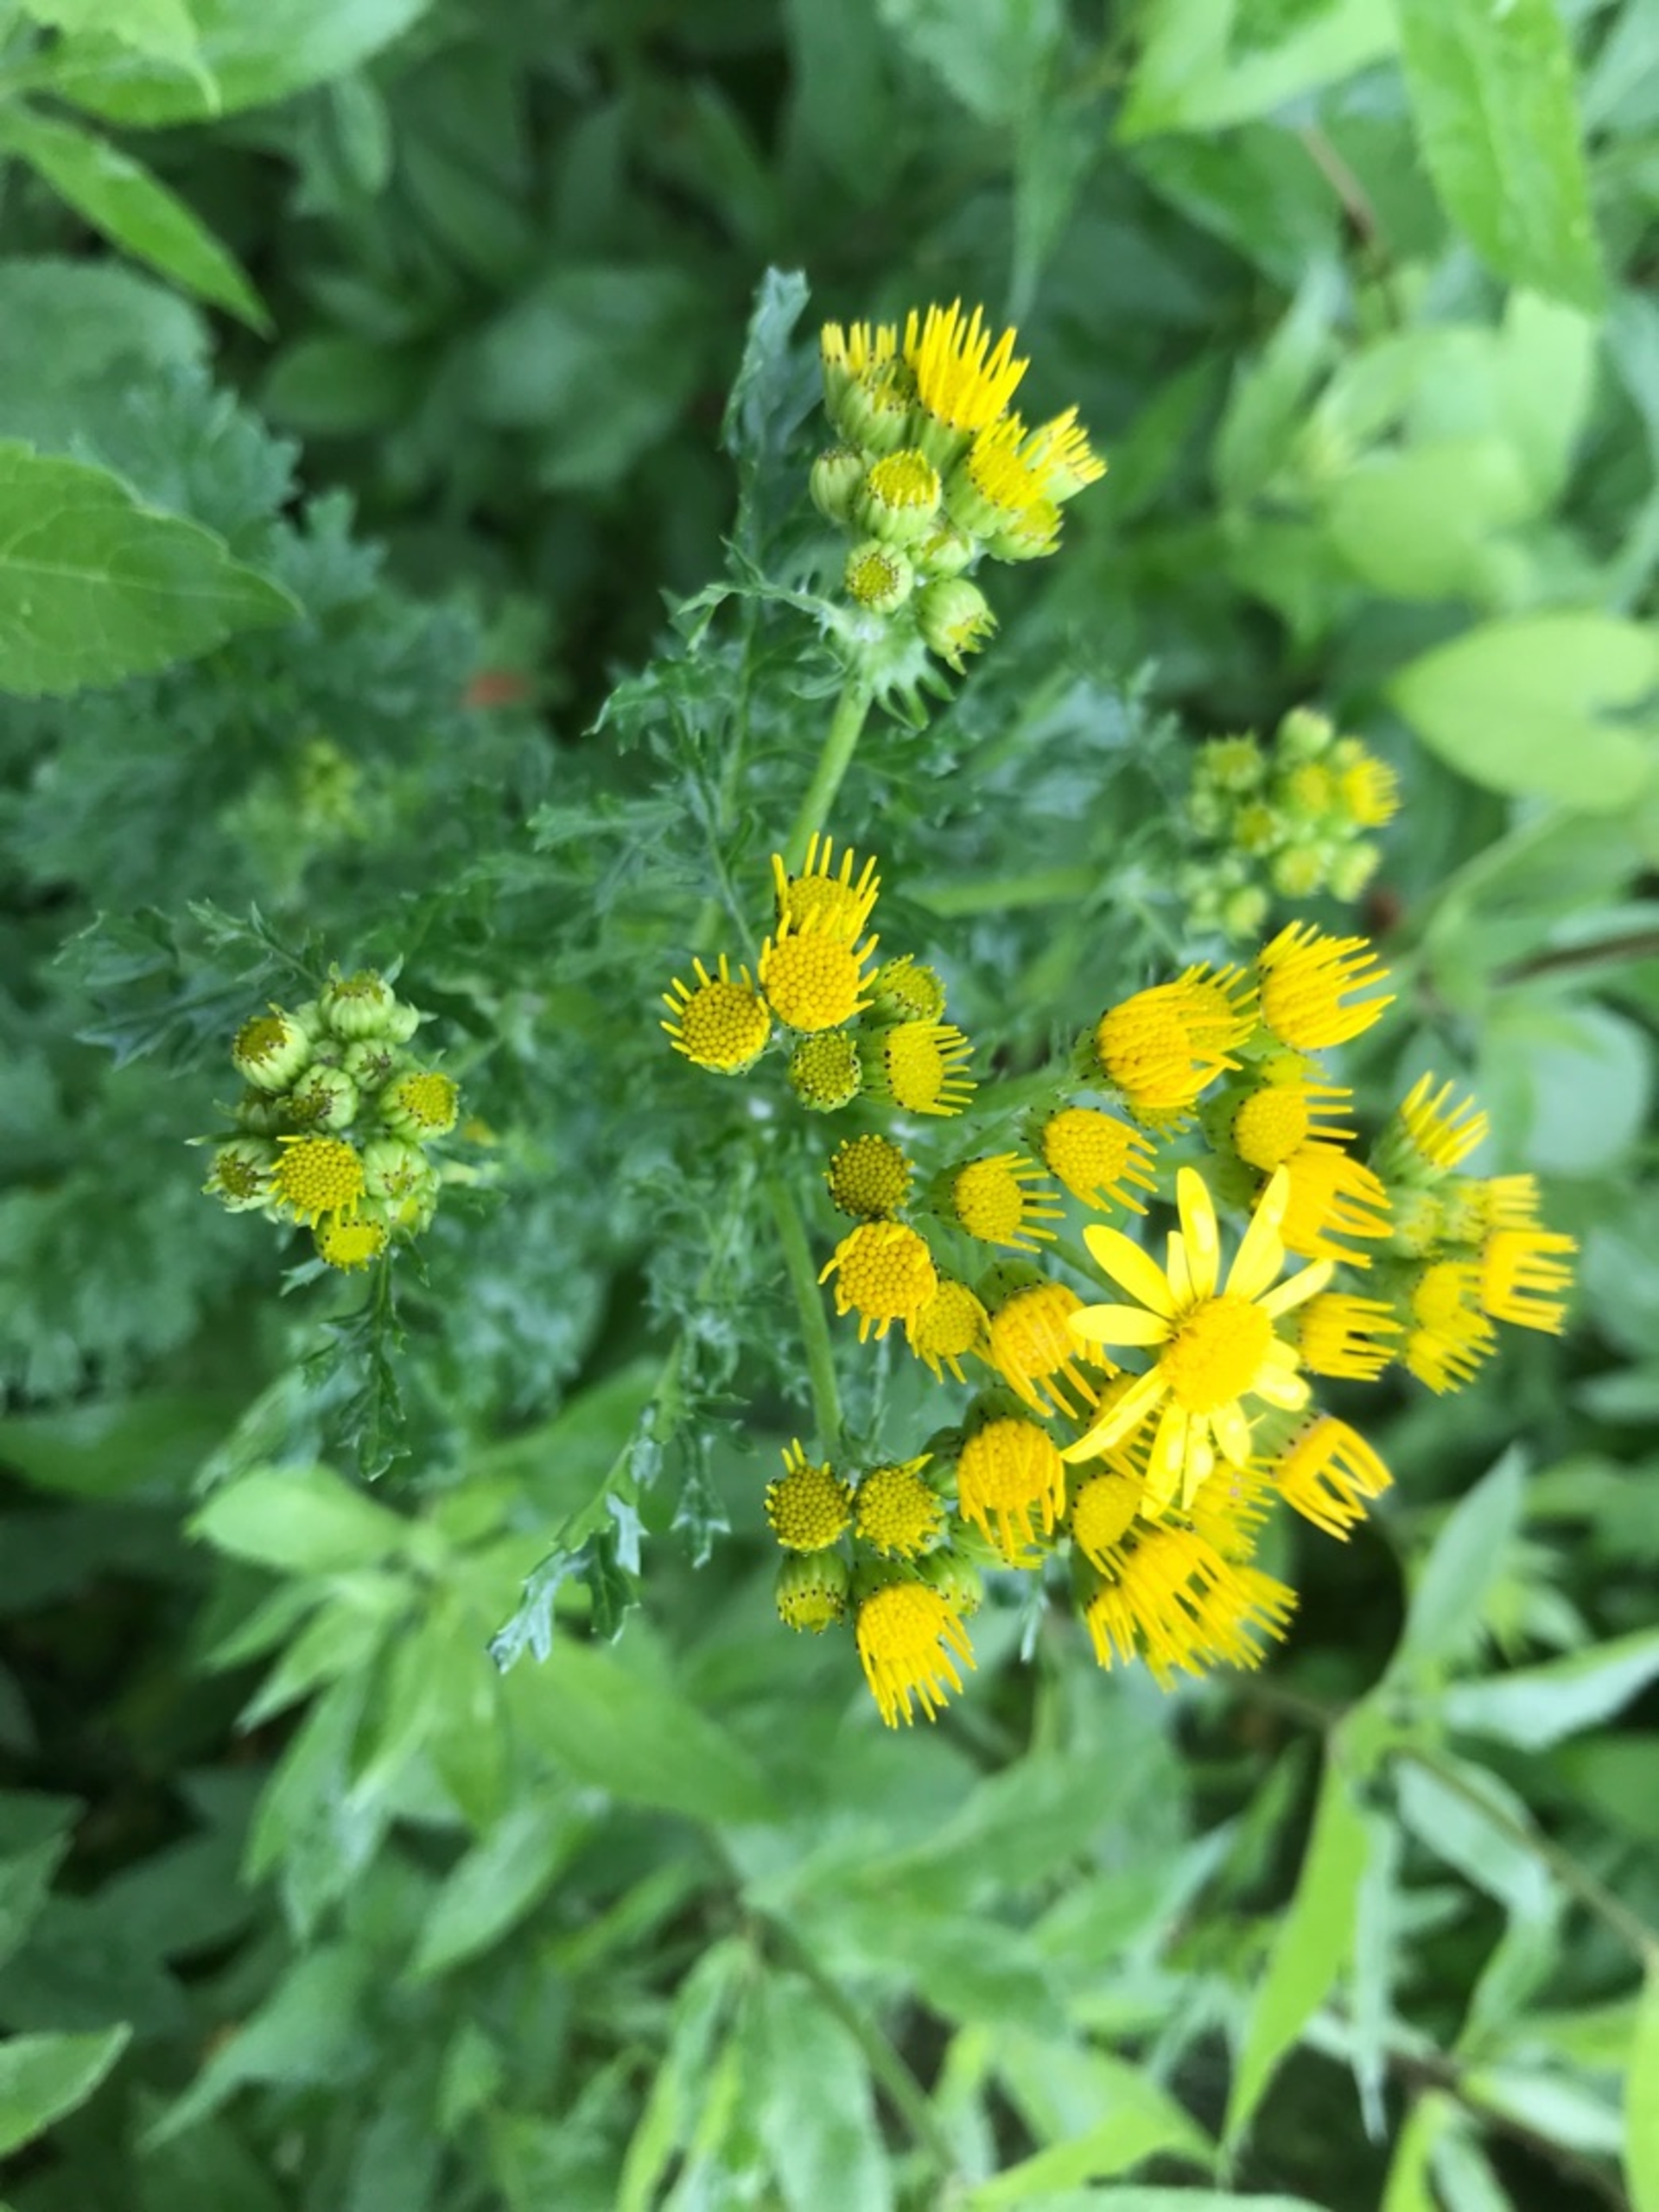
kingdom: Plantae
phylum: Tracheophyta
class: Magnoliopsida
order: Asterales
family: Asteraceae
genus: Jacobaea
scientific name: Jacobaea vulgaris
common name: Eng-brandbæger
